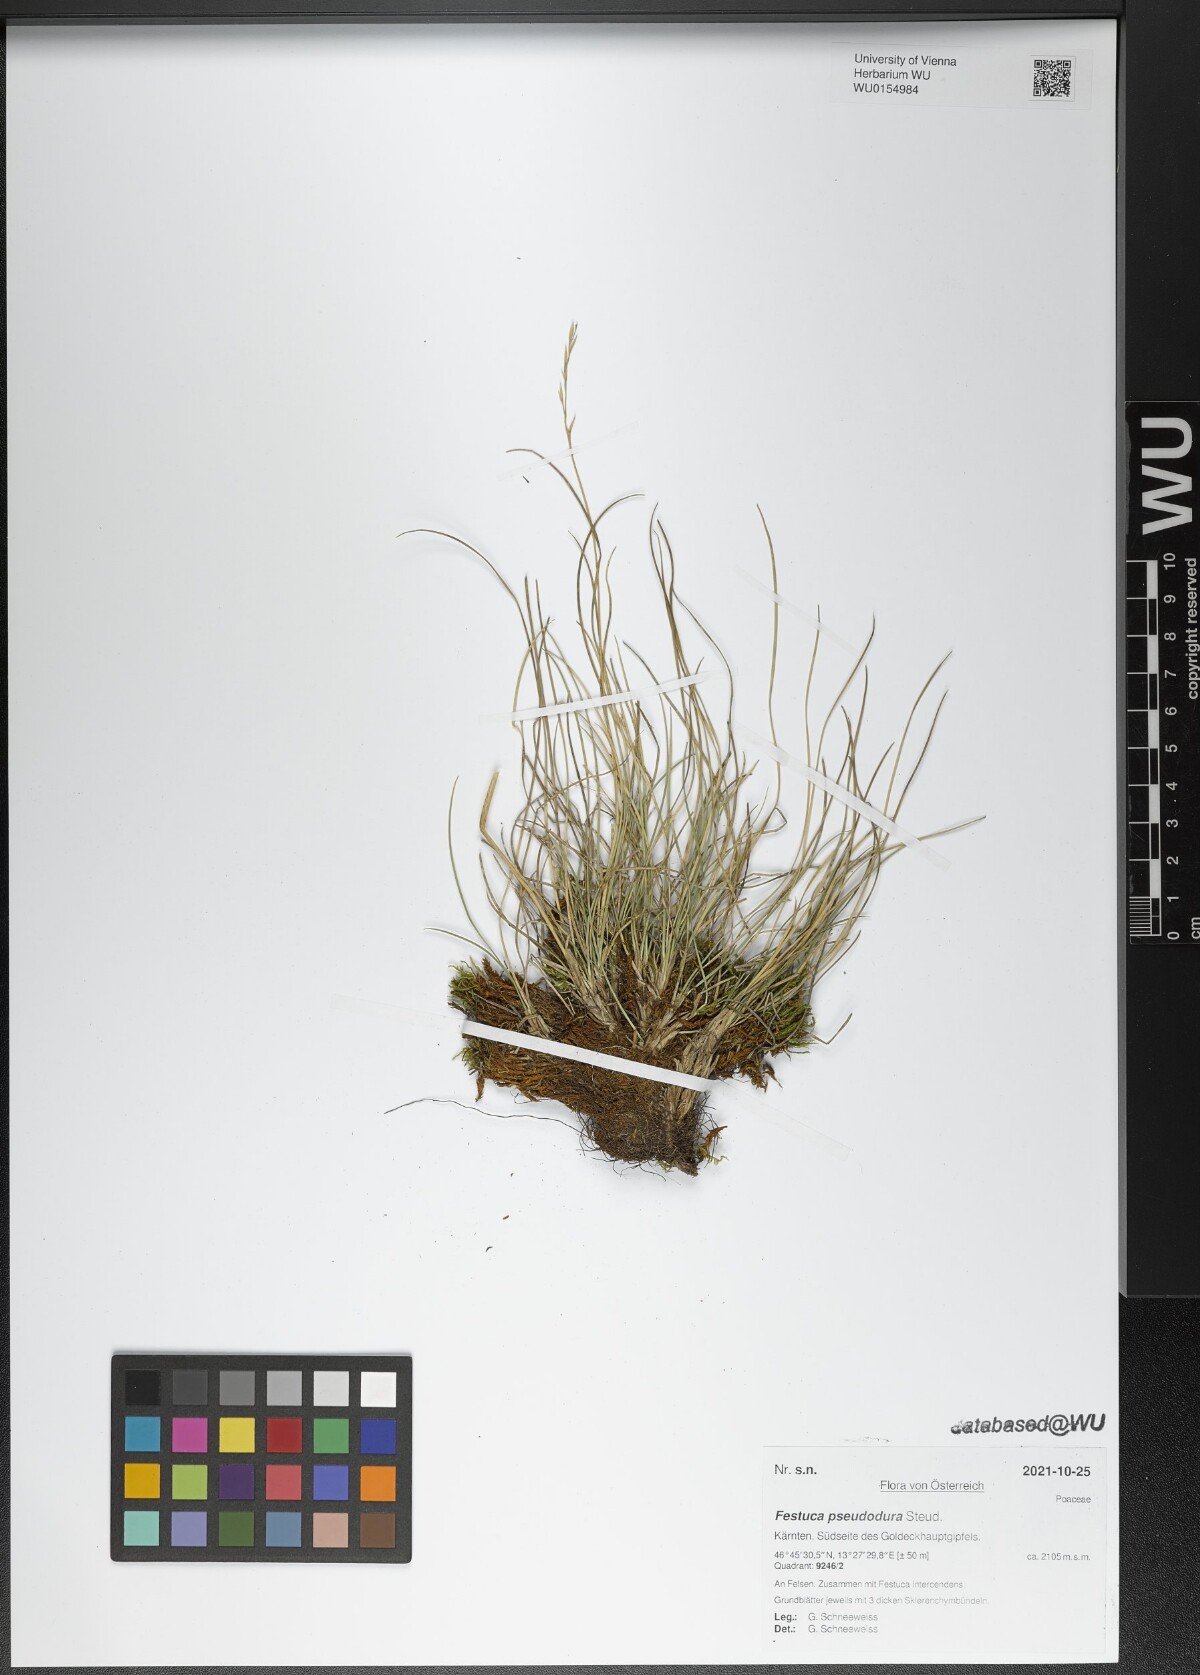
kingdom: Plantae
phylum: Tracheophyta
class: Liliopsida
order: Poales
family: Poaceae
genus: Festuca
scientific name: Festuca pseudodura
